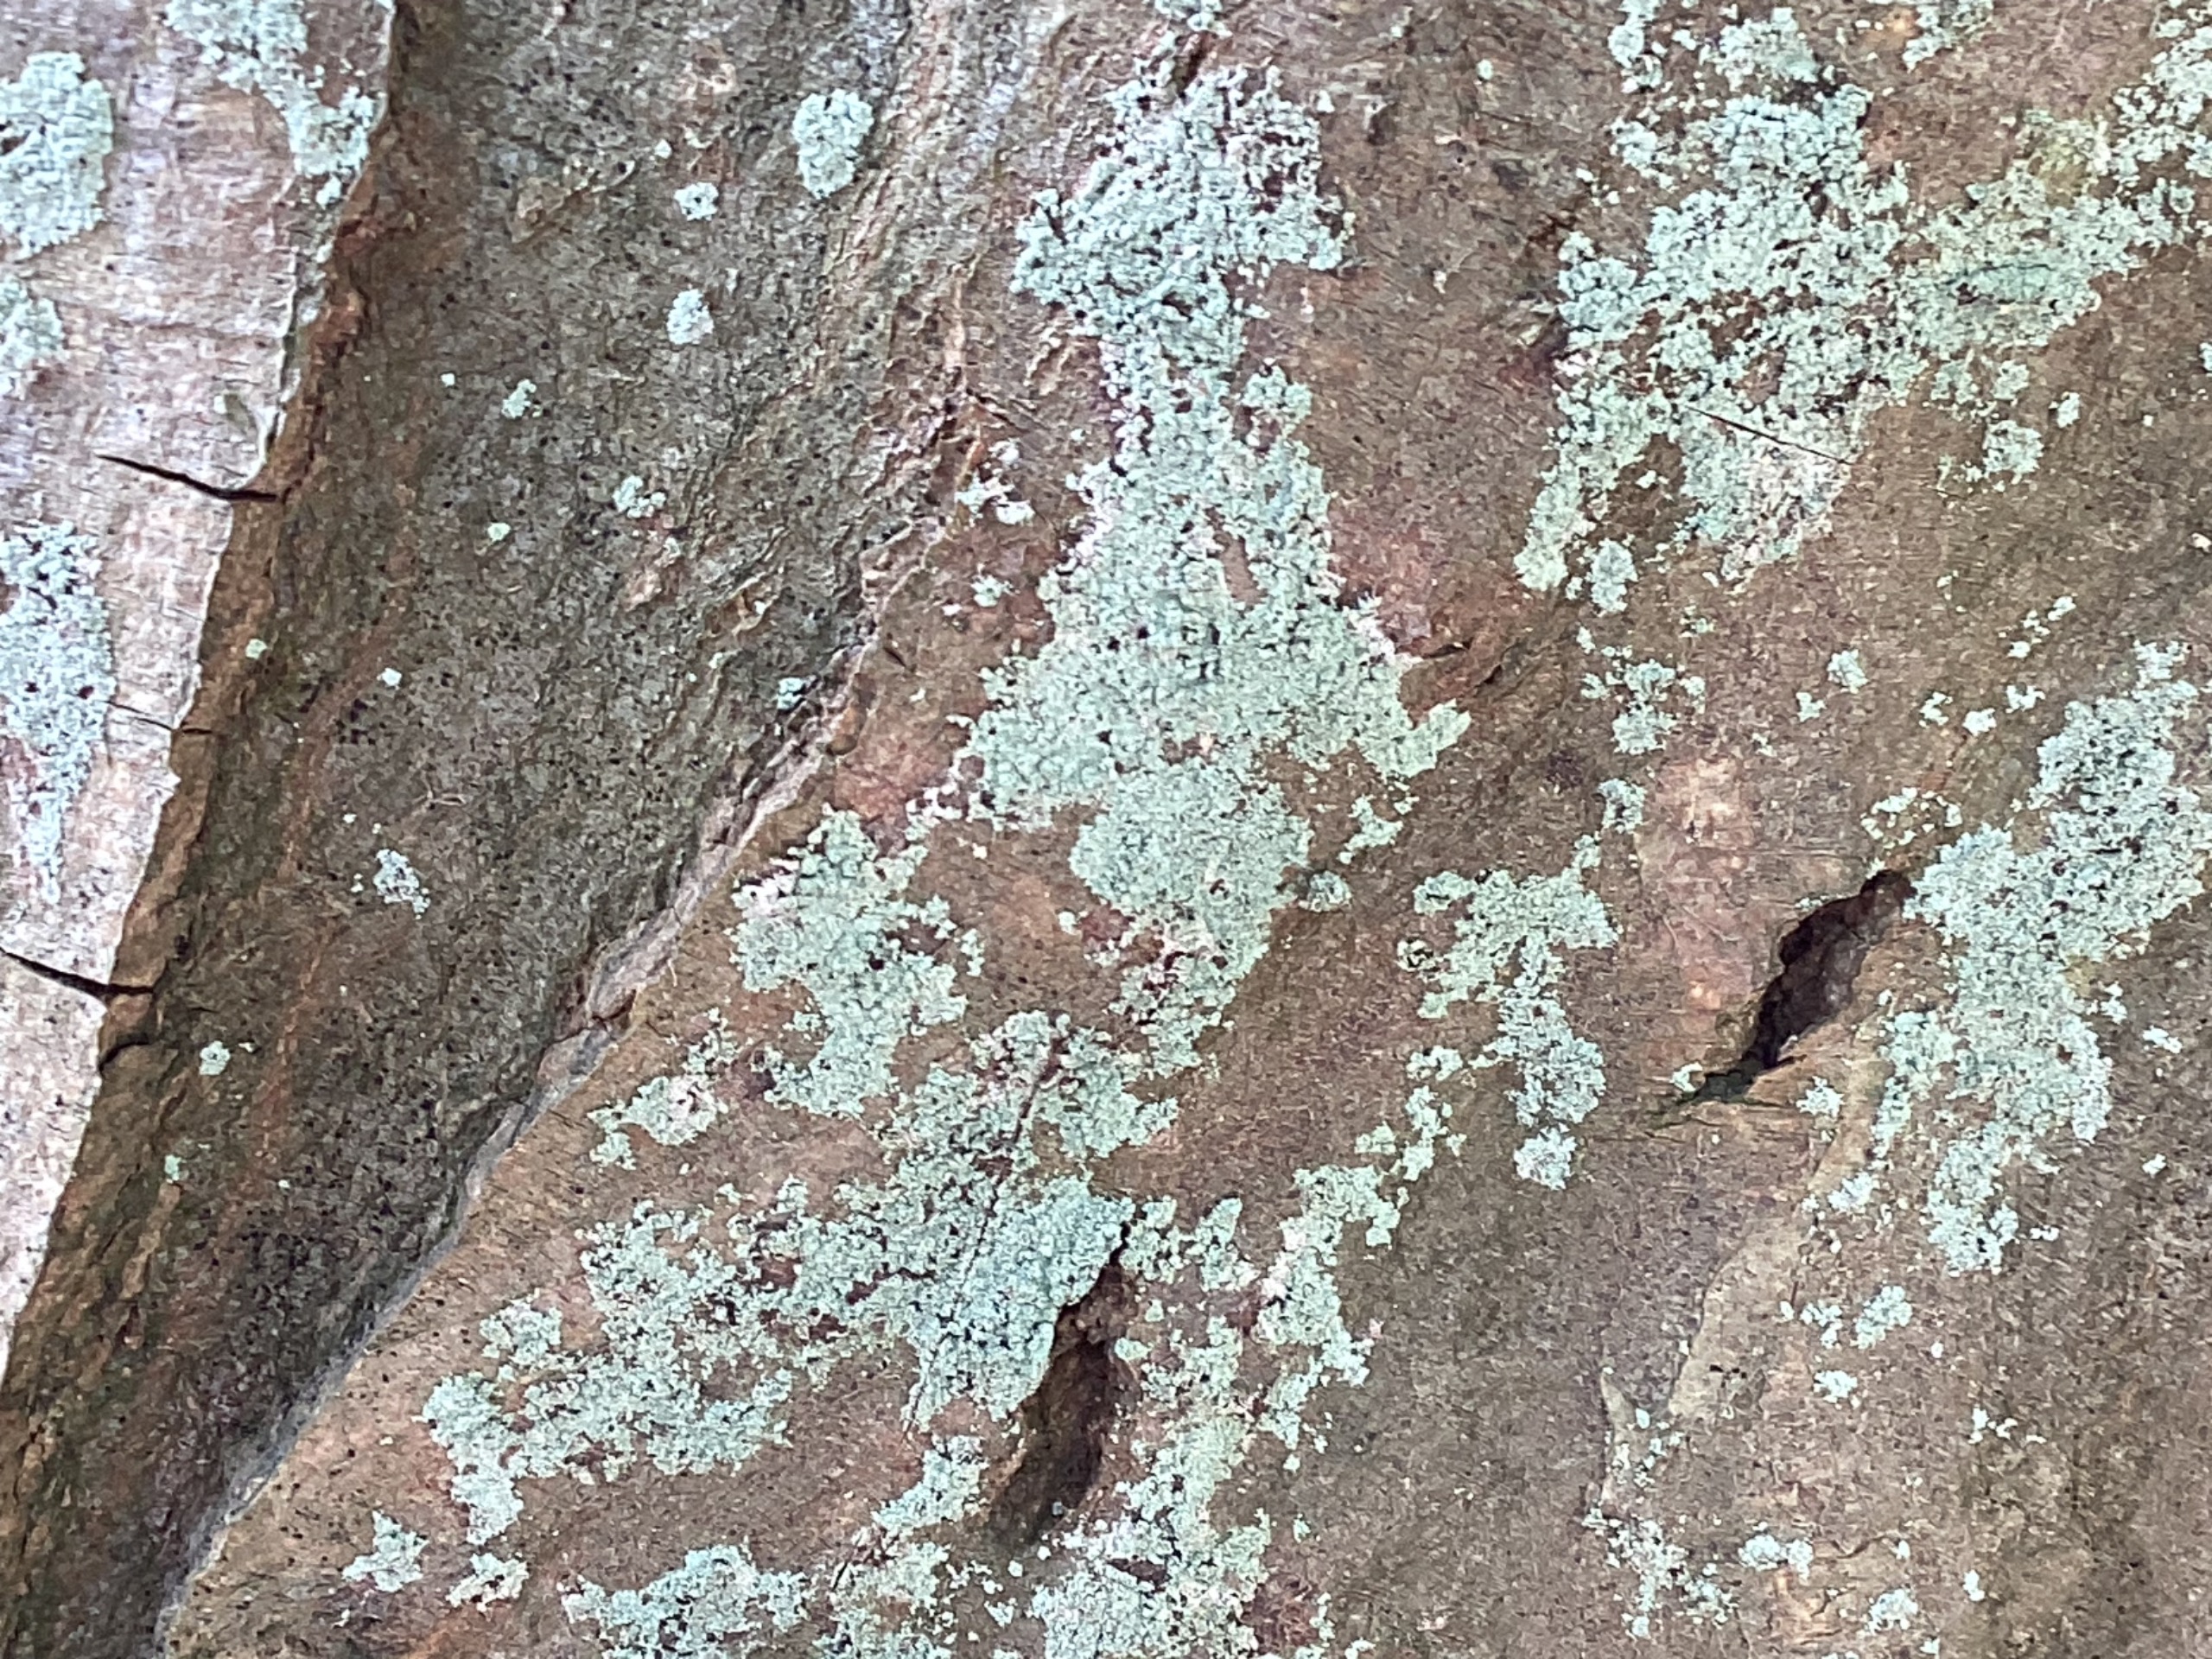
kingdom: Fungi
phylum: Ascomycota
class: Lecanoromycetes
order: Lecanorales
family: Stereocaulaceae
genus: Lepraria
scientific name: Lepraria incana
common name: Almindelig støvlav
